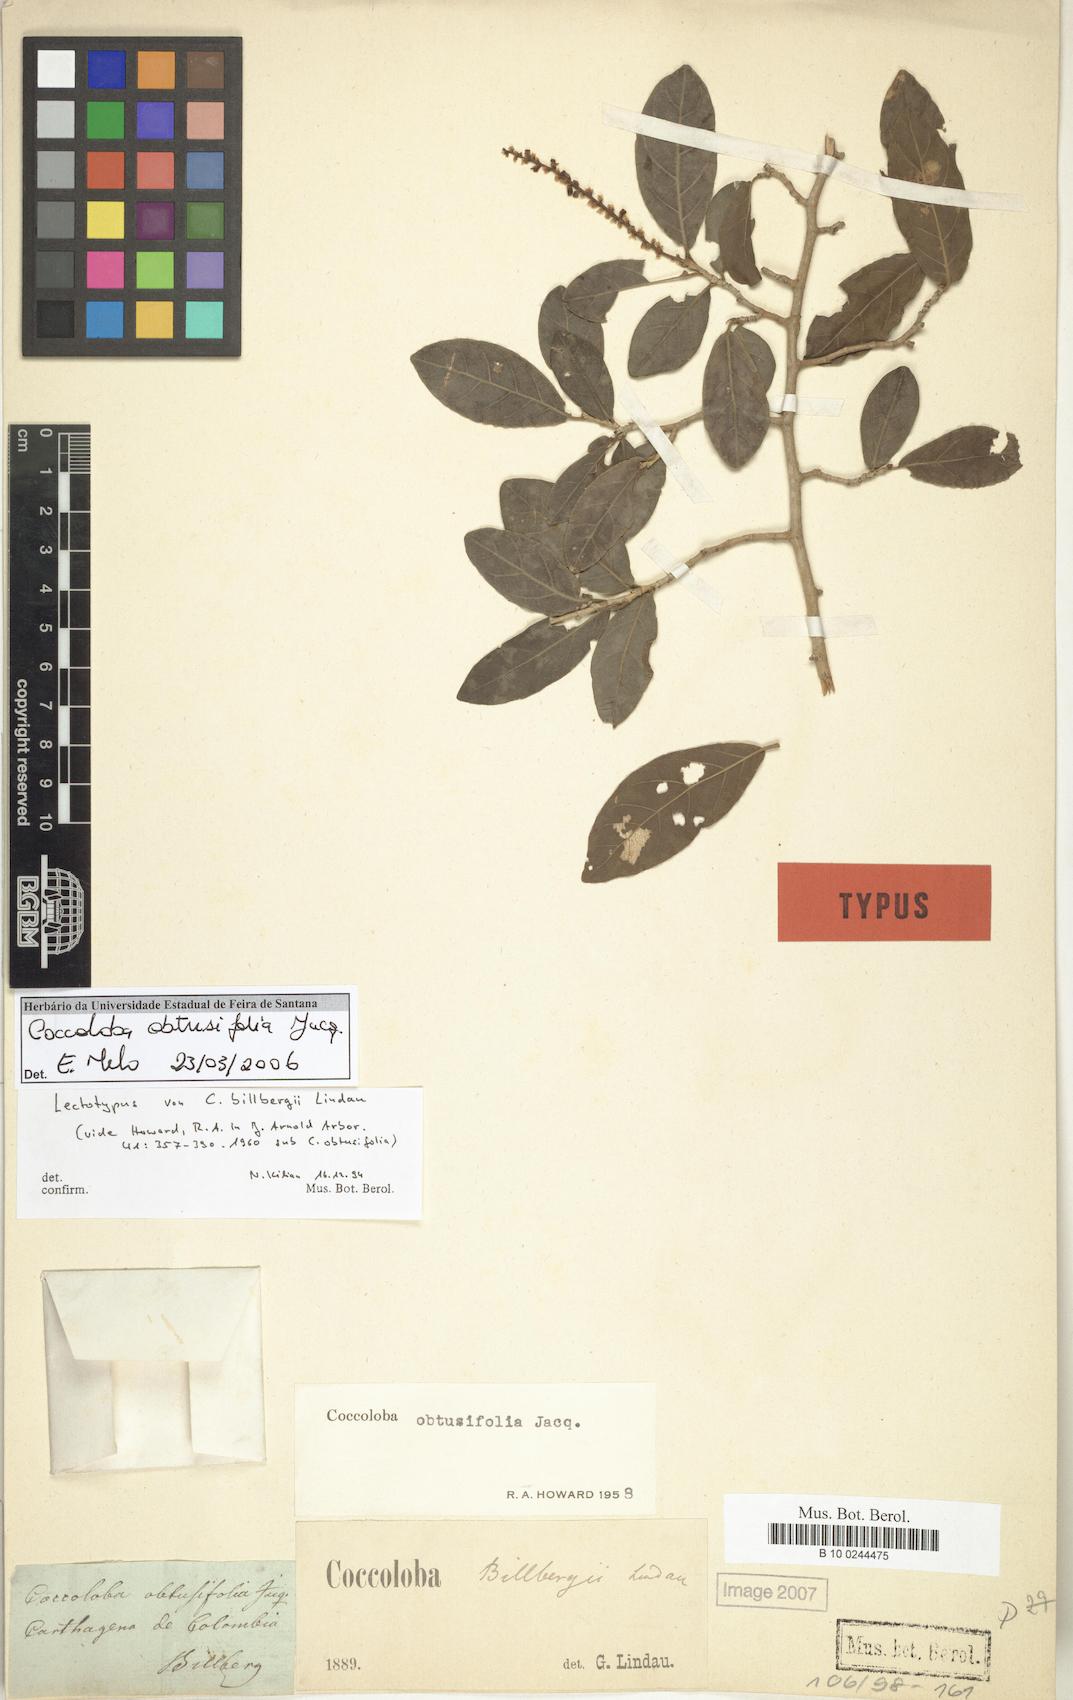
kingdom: Plantae
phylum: Tracheophyta
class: Magnoliopsida
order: Caryophyllales
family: Polygonaceae
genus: Coccoloba
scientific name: Coccoloba obtusifolia
